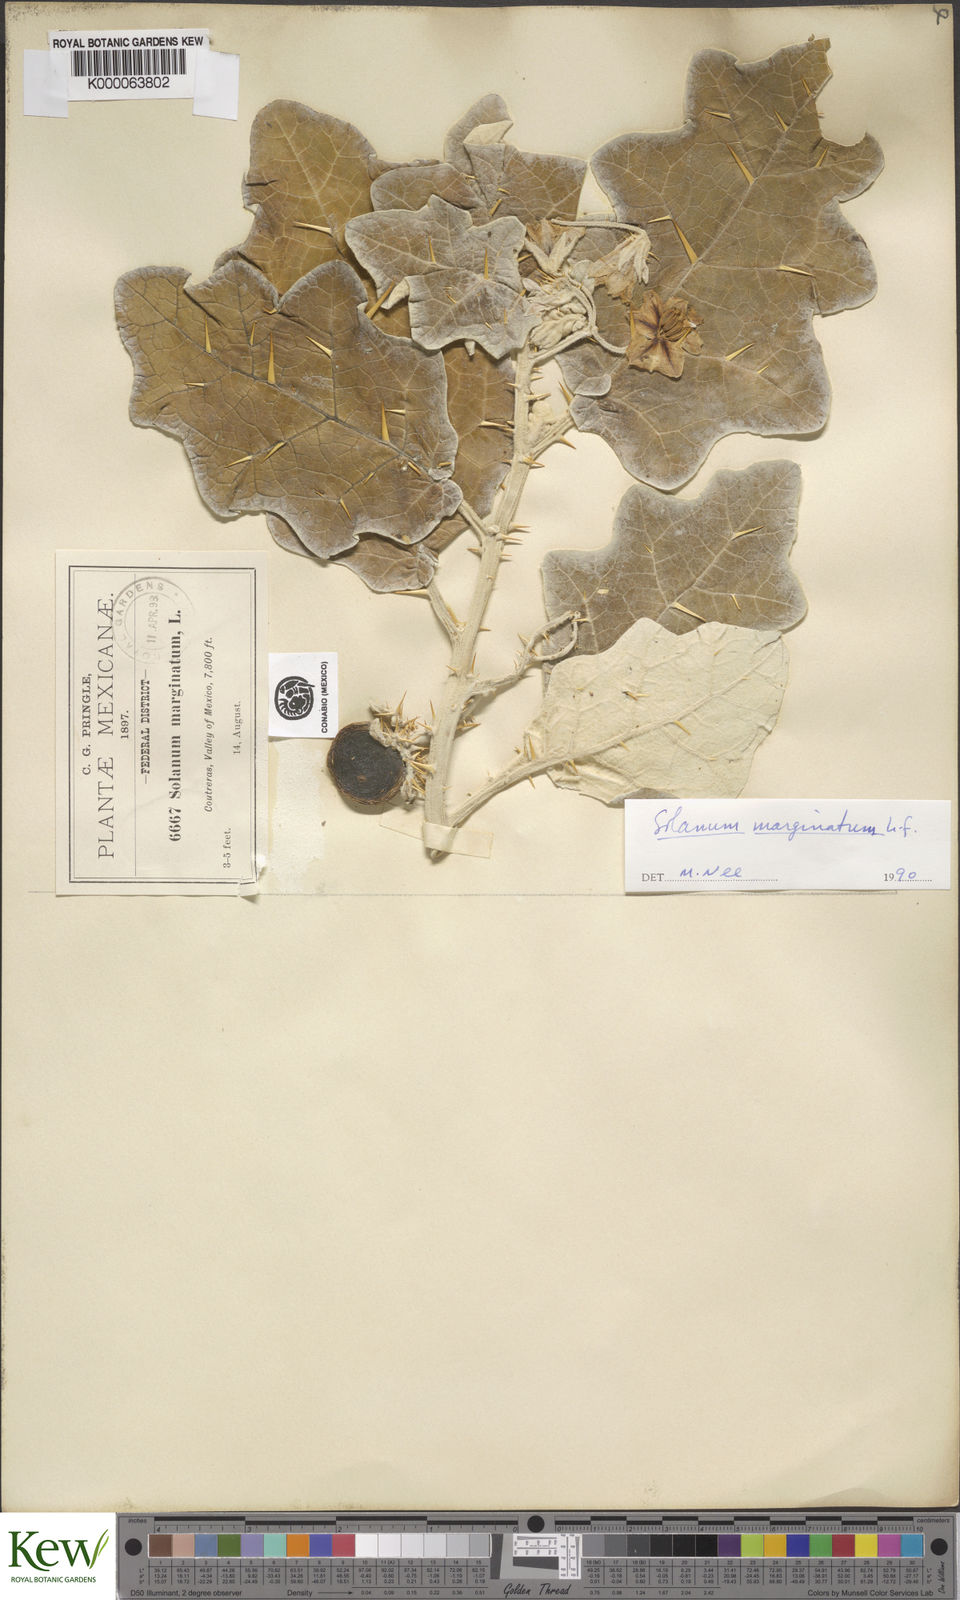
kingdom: Plantae
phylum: Tracheophyta
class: Magnoliopsida
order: Solanales
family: Solanaceae
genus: Solanum
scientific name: Solanum marginatum
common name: Purple african nightshade
